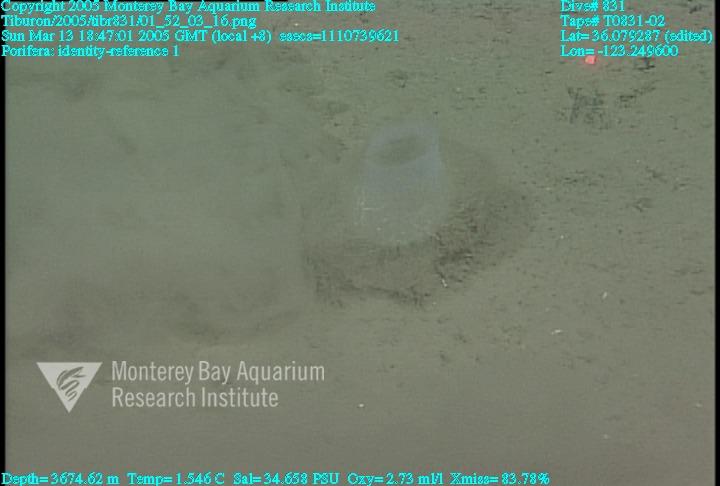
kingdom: Animalia
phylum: Porifera
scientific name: Porifera
